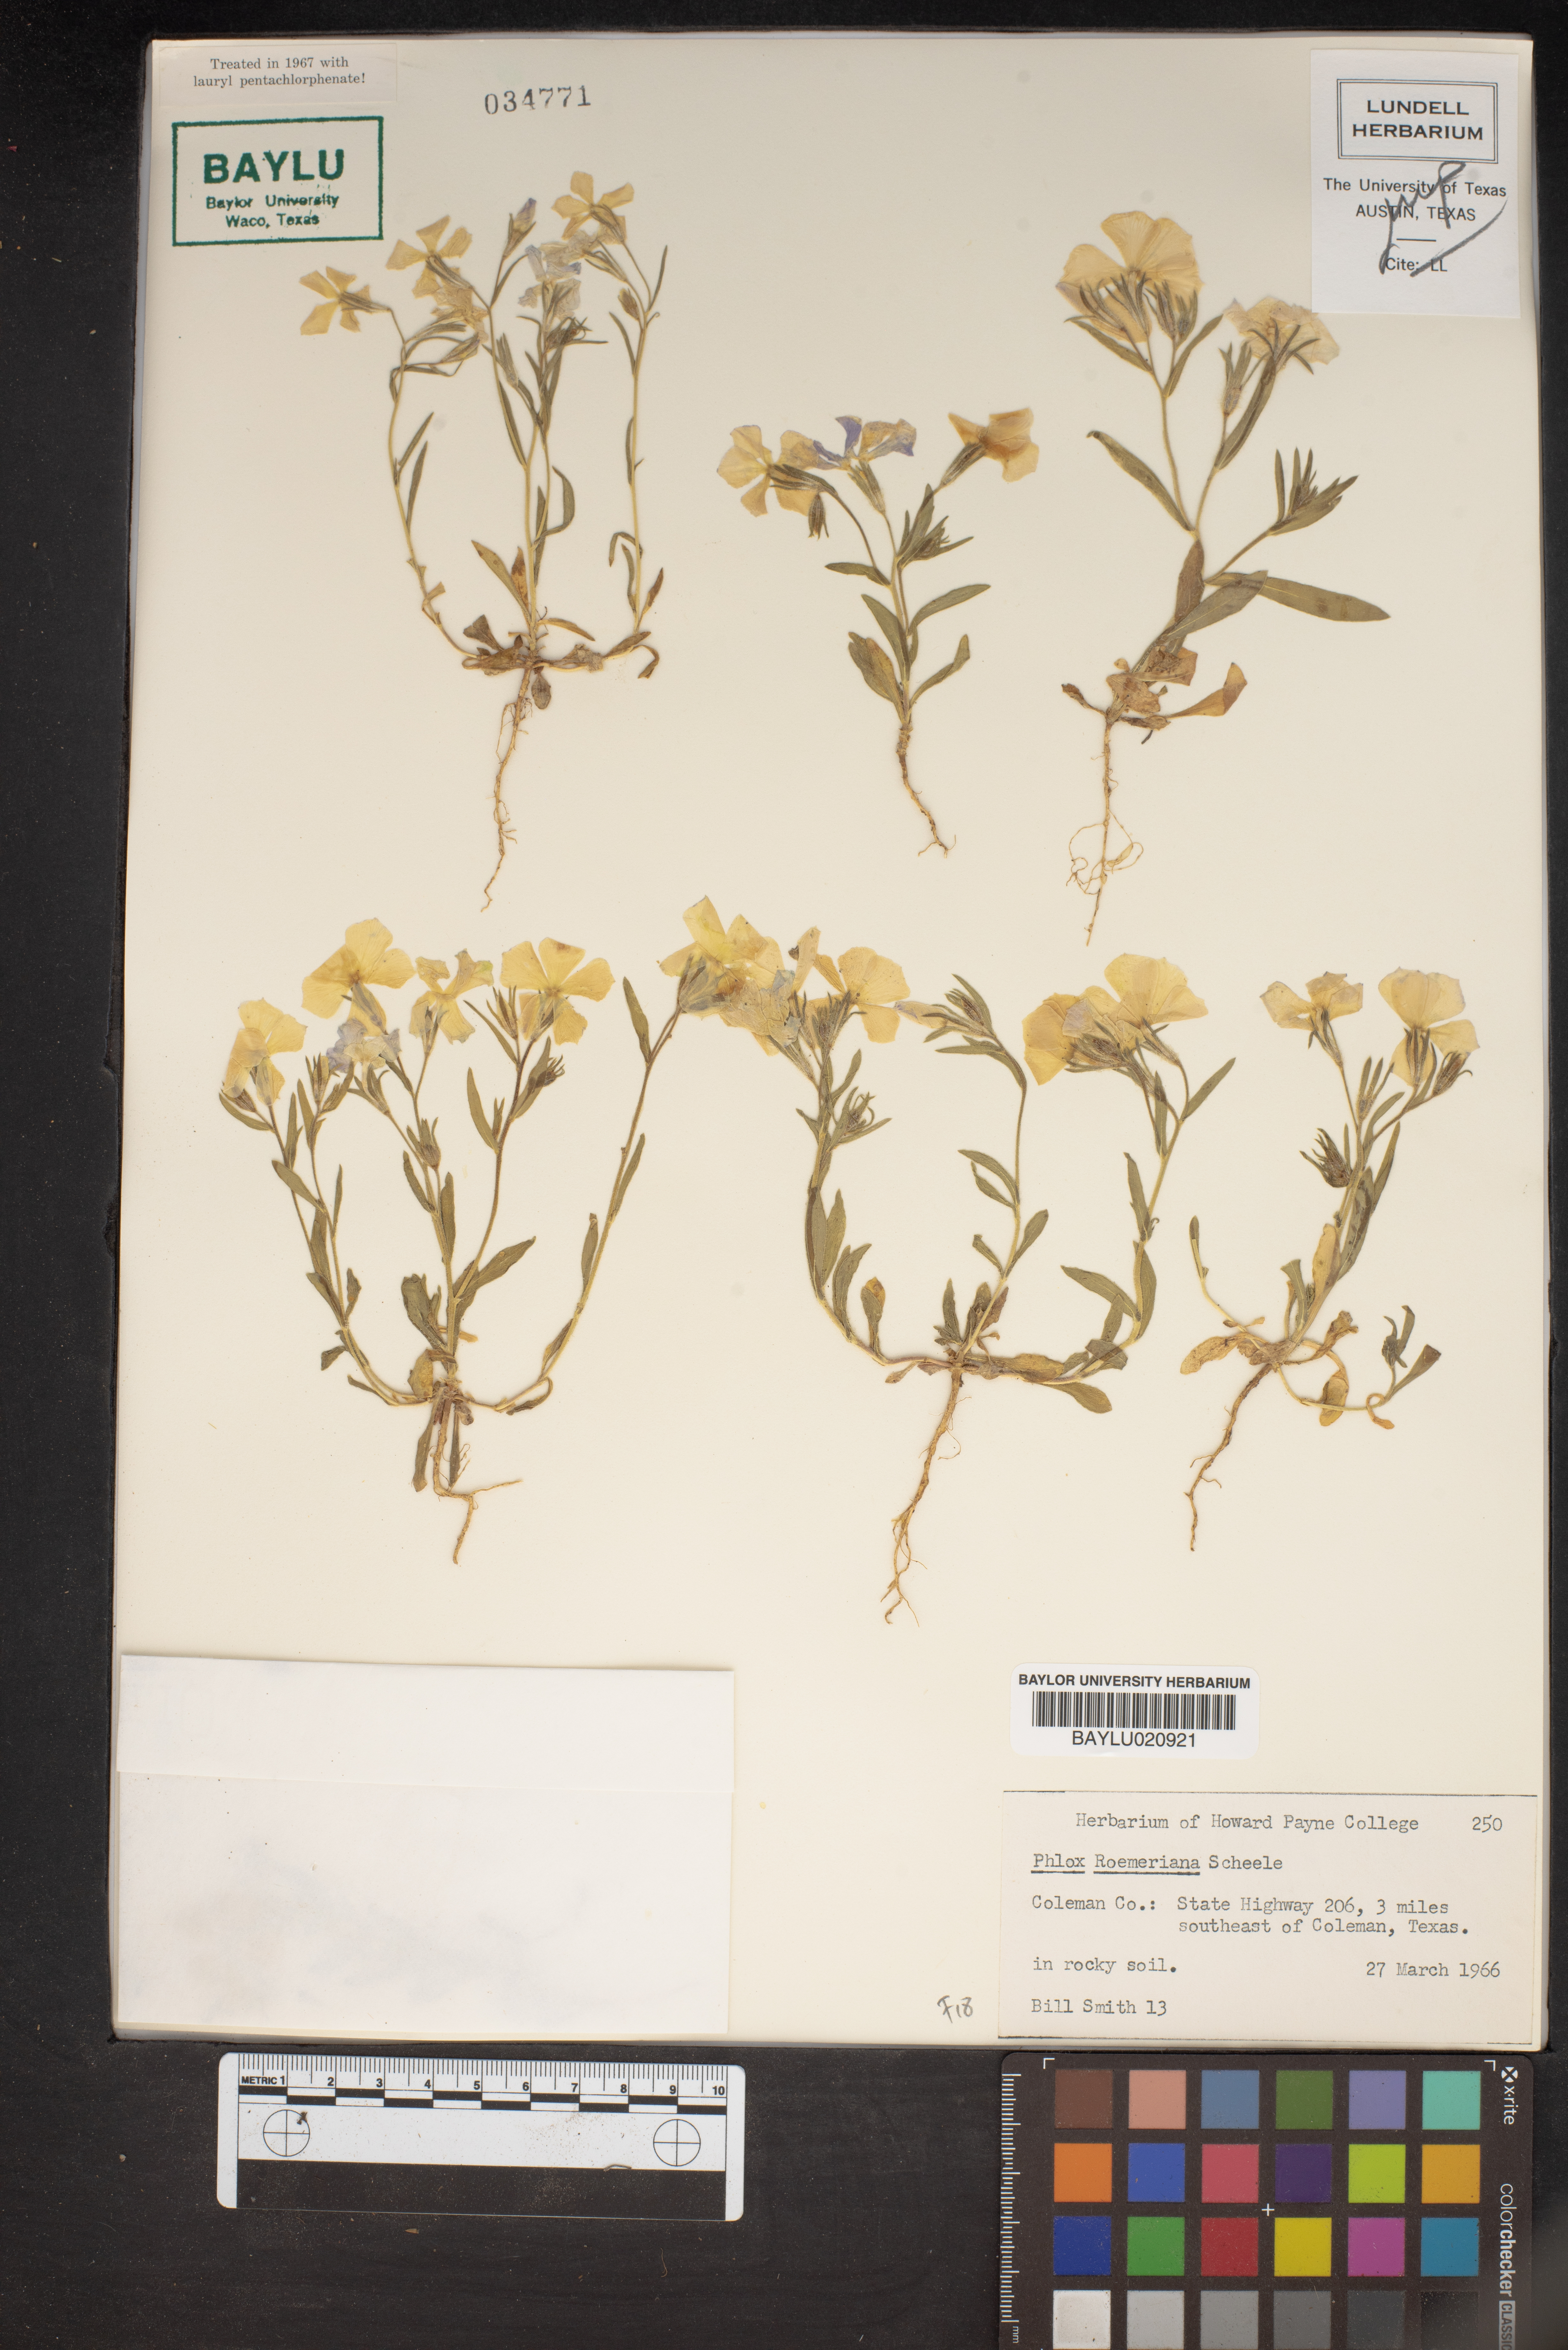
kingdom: Plantae
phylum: Tracheophyta
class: Magnoliopsida
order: Ericales
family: Polemoniaceae
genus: Phlox
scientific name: Phlox roemeriana
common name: Roemer's phlox
